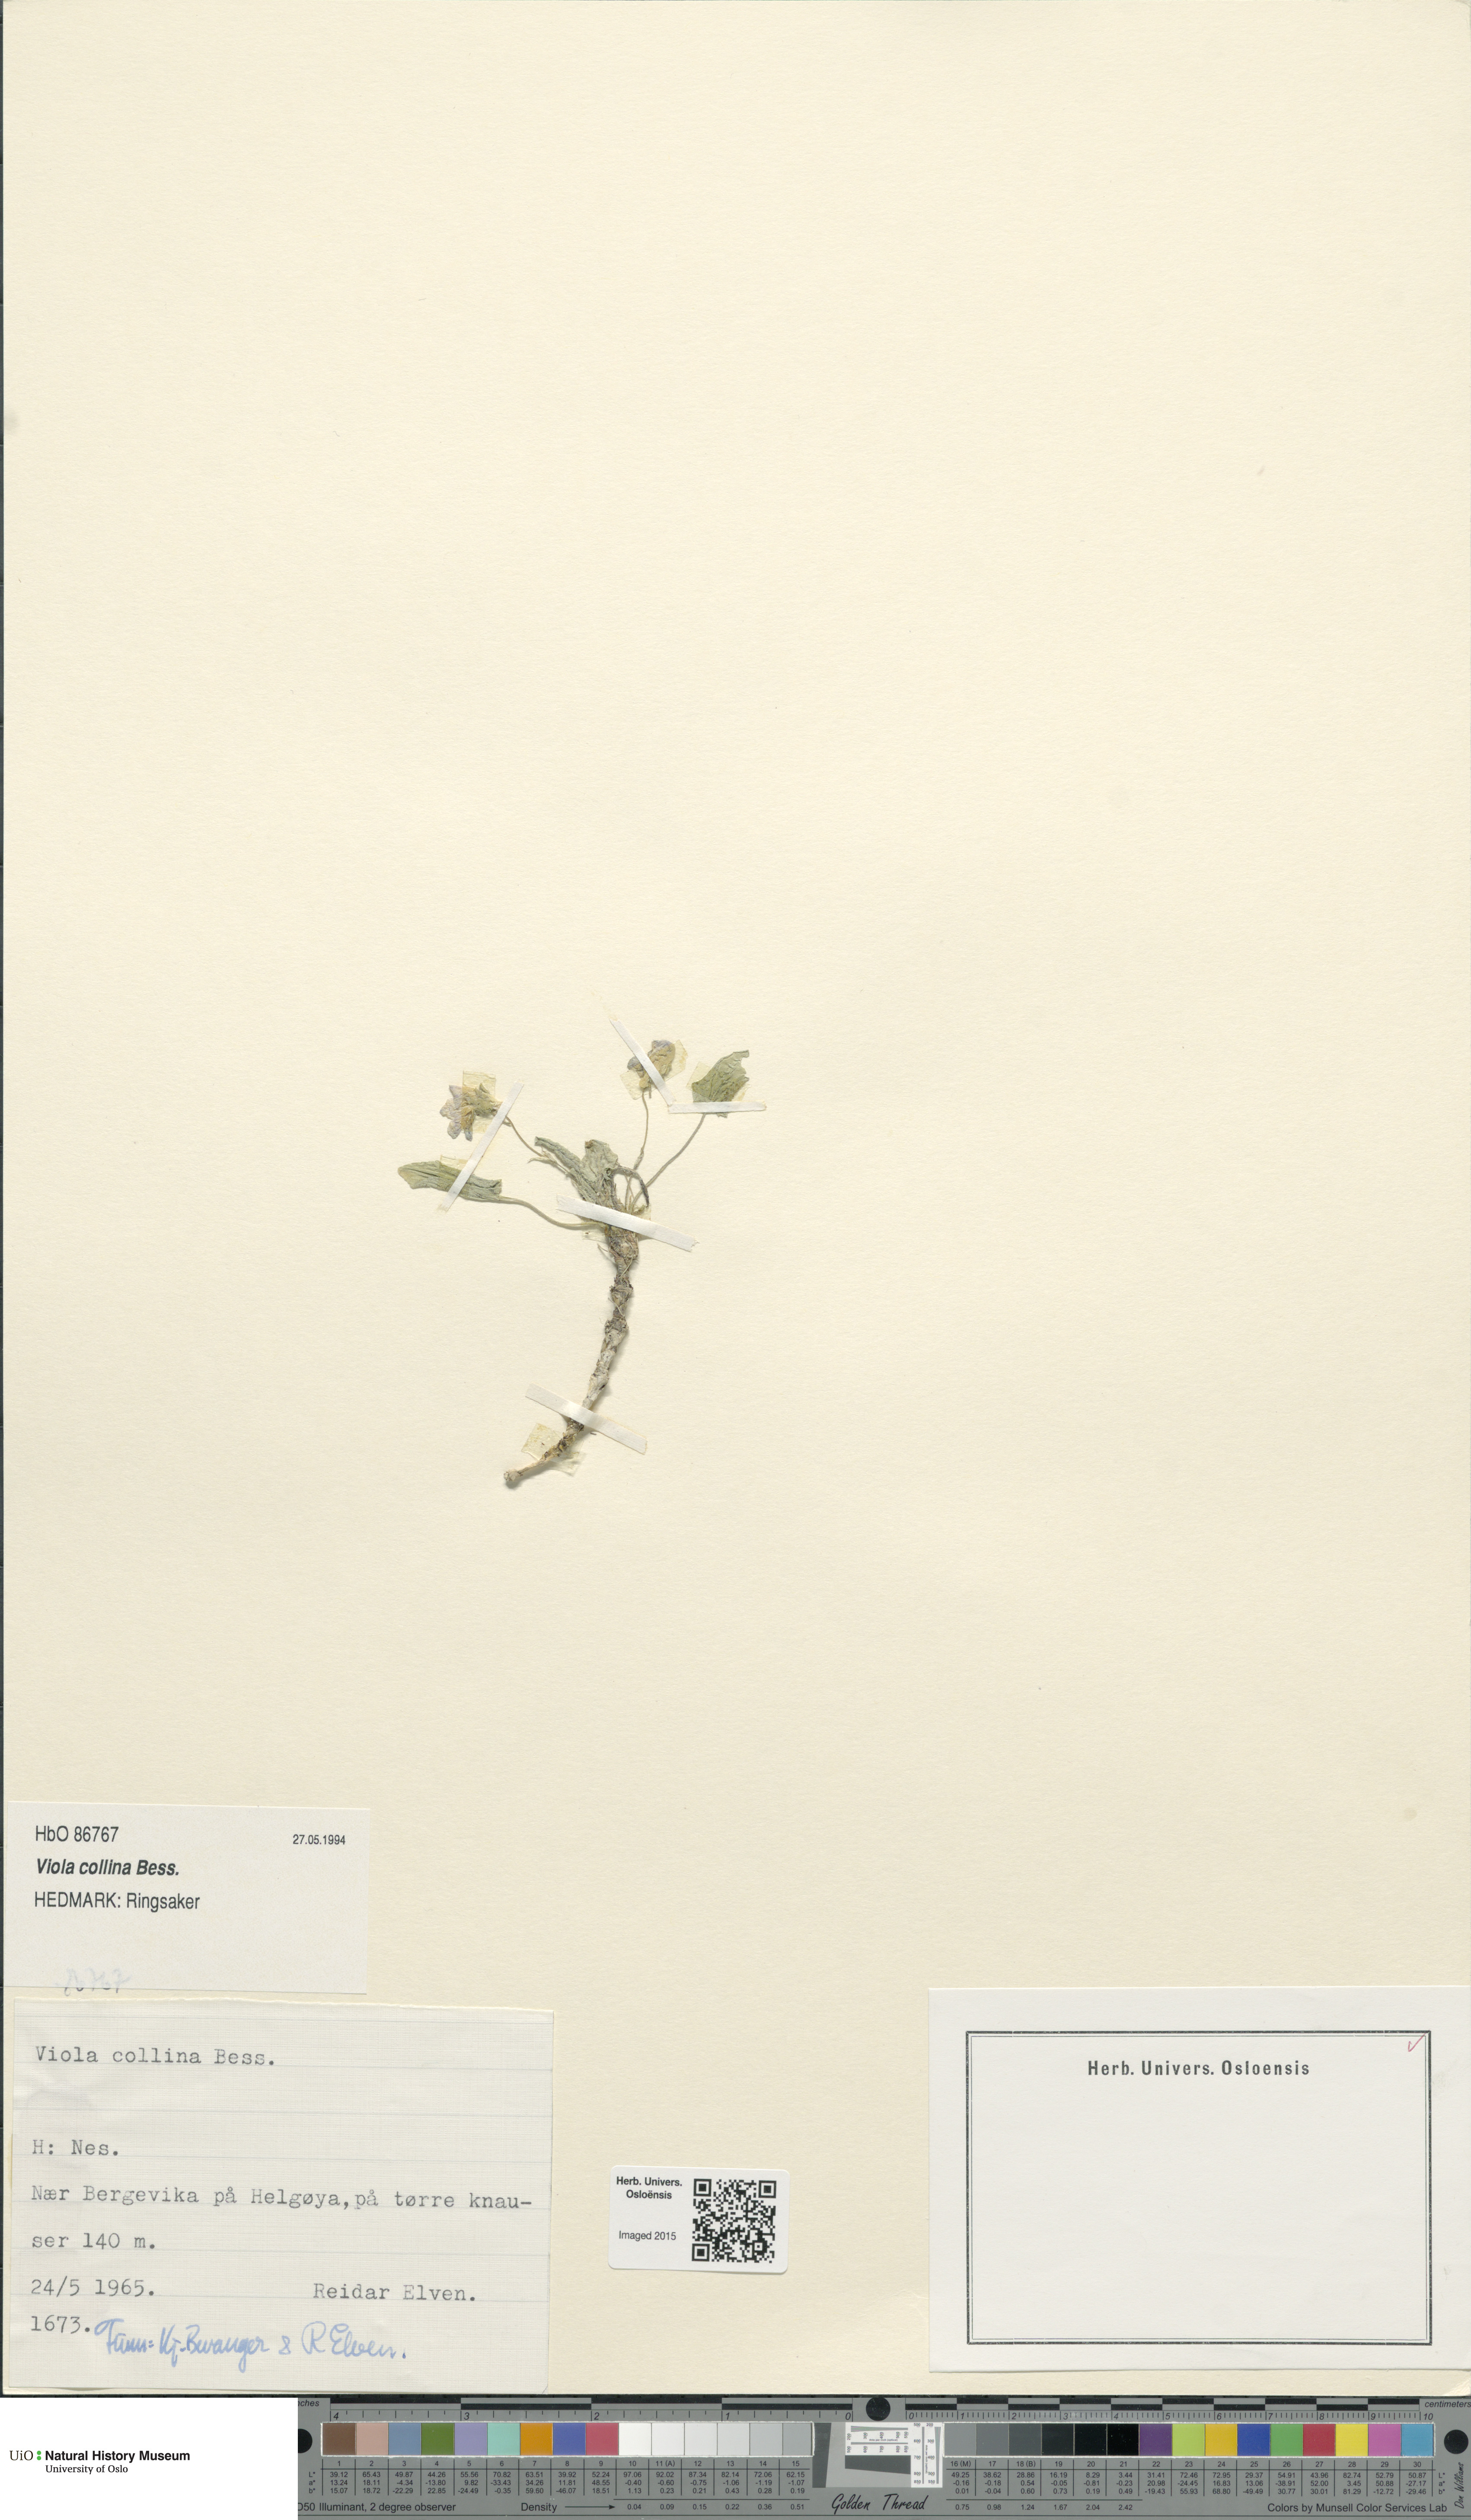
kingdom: Plantae
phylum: Tracheophyta
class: Magnoliopsida
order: Malpighiales
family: Violaceae
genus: Viola
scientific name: Viola collina
